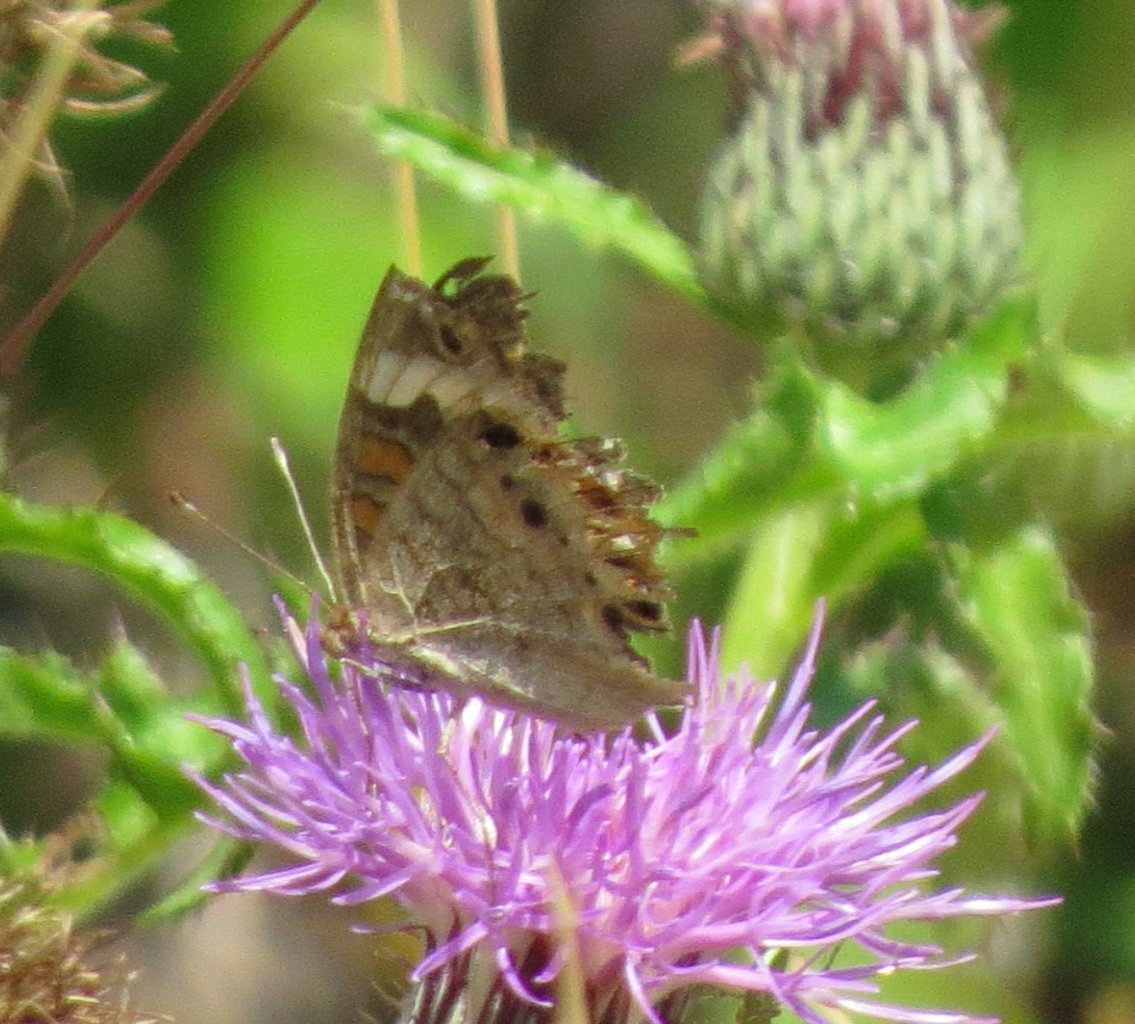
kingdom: Animalia
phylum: Arthropoda
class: Insecta
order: Lepidoptera
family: Nymphalidae
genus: Junonia
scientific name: Junonia coenia
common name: Common Buckeye
